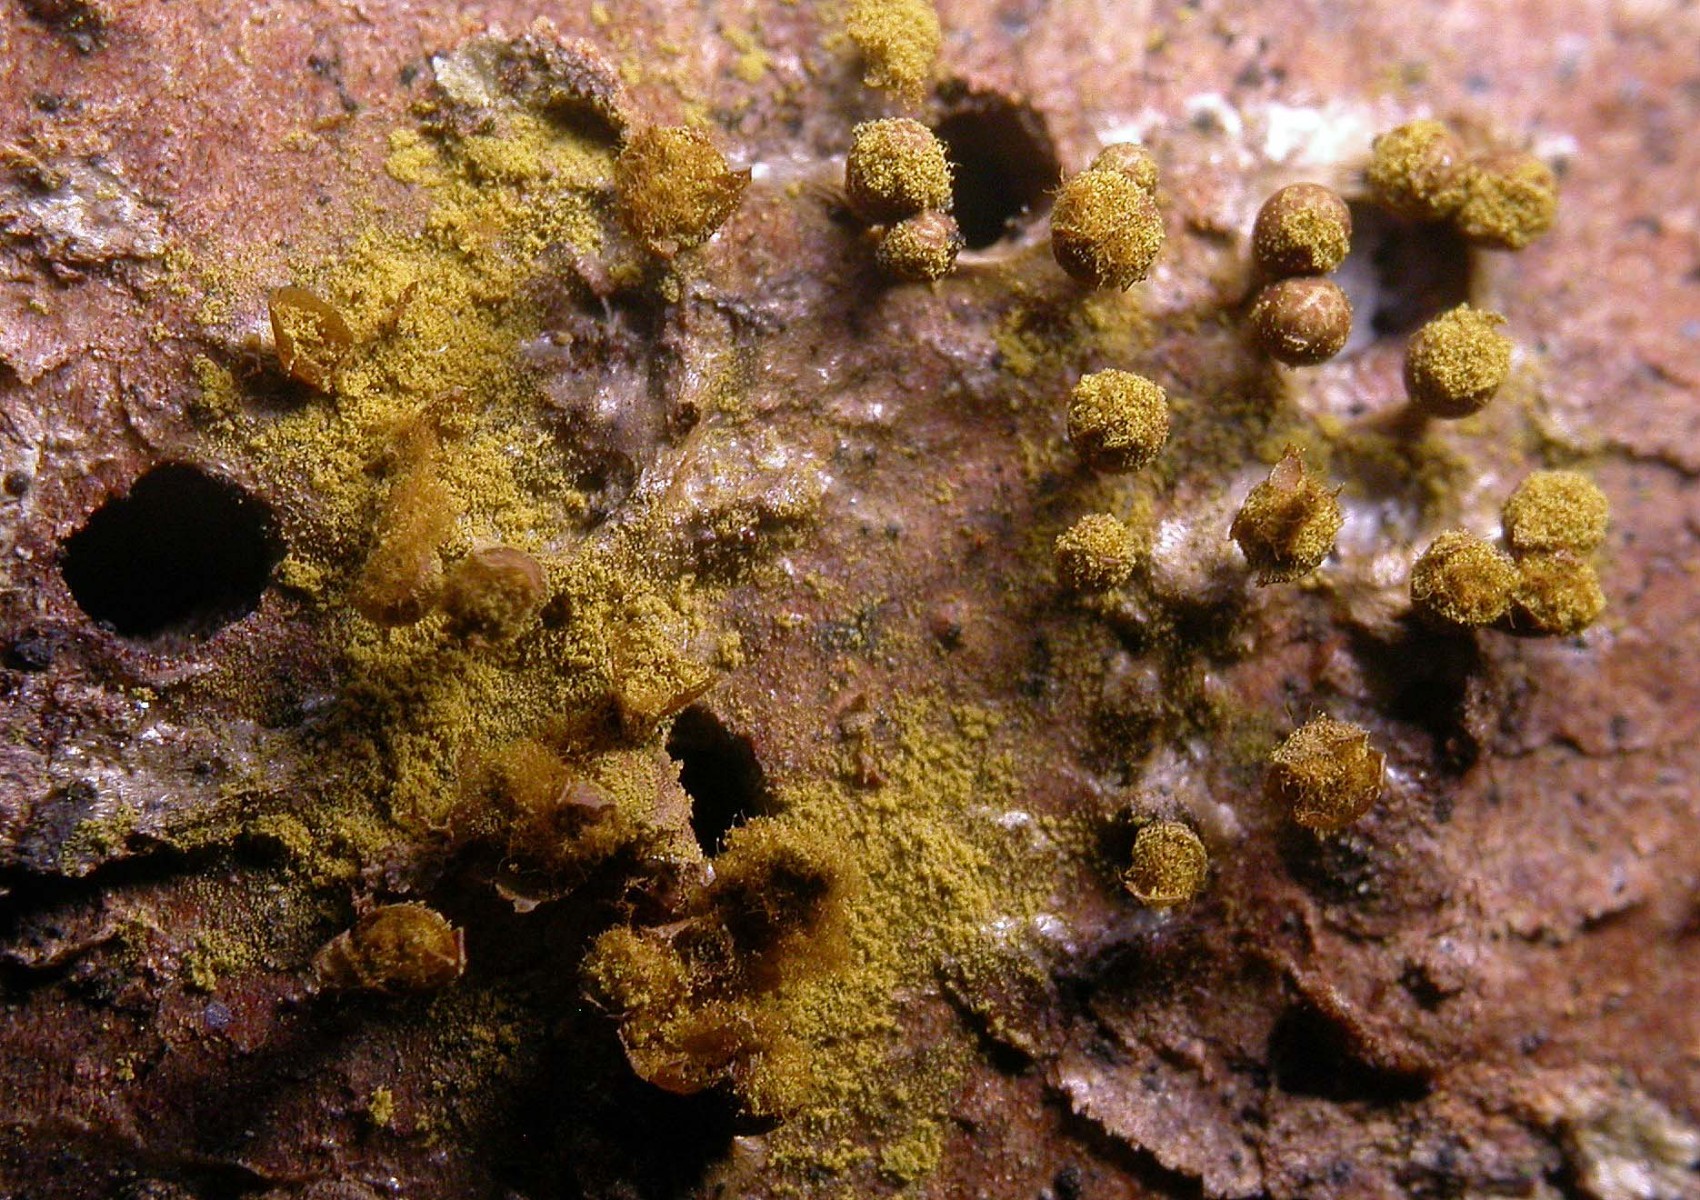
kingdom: Protozoa
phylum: Mycetozoa
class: Myxomycetes
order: Trichiales
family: Trichiaceae
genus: Trichia
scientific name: Trichia botrytis
